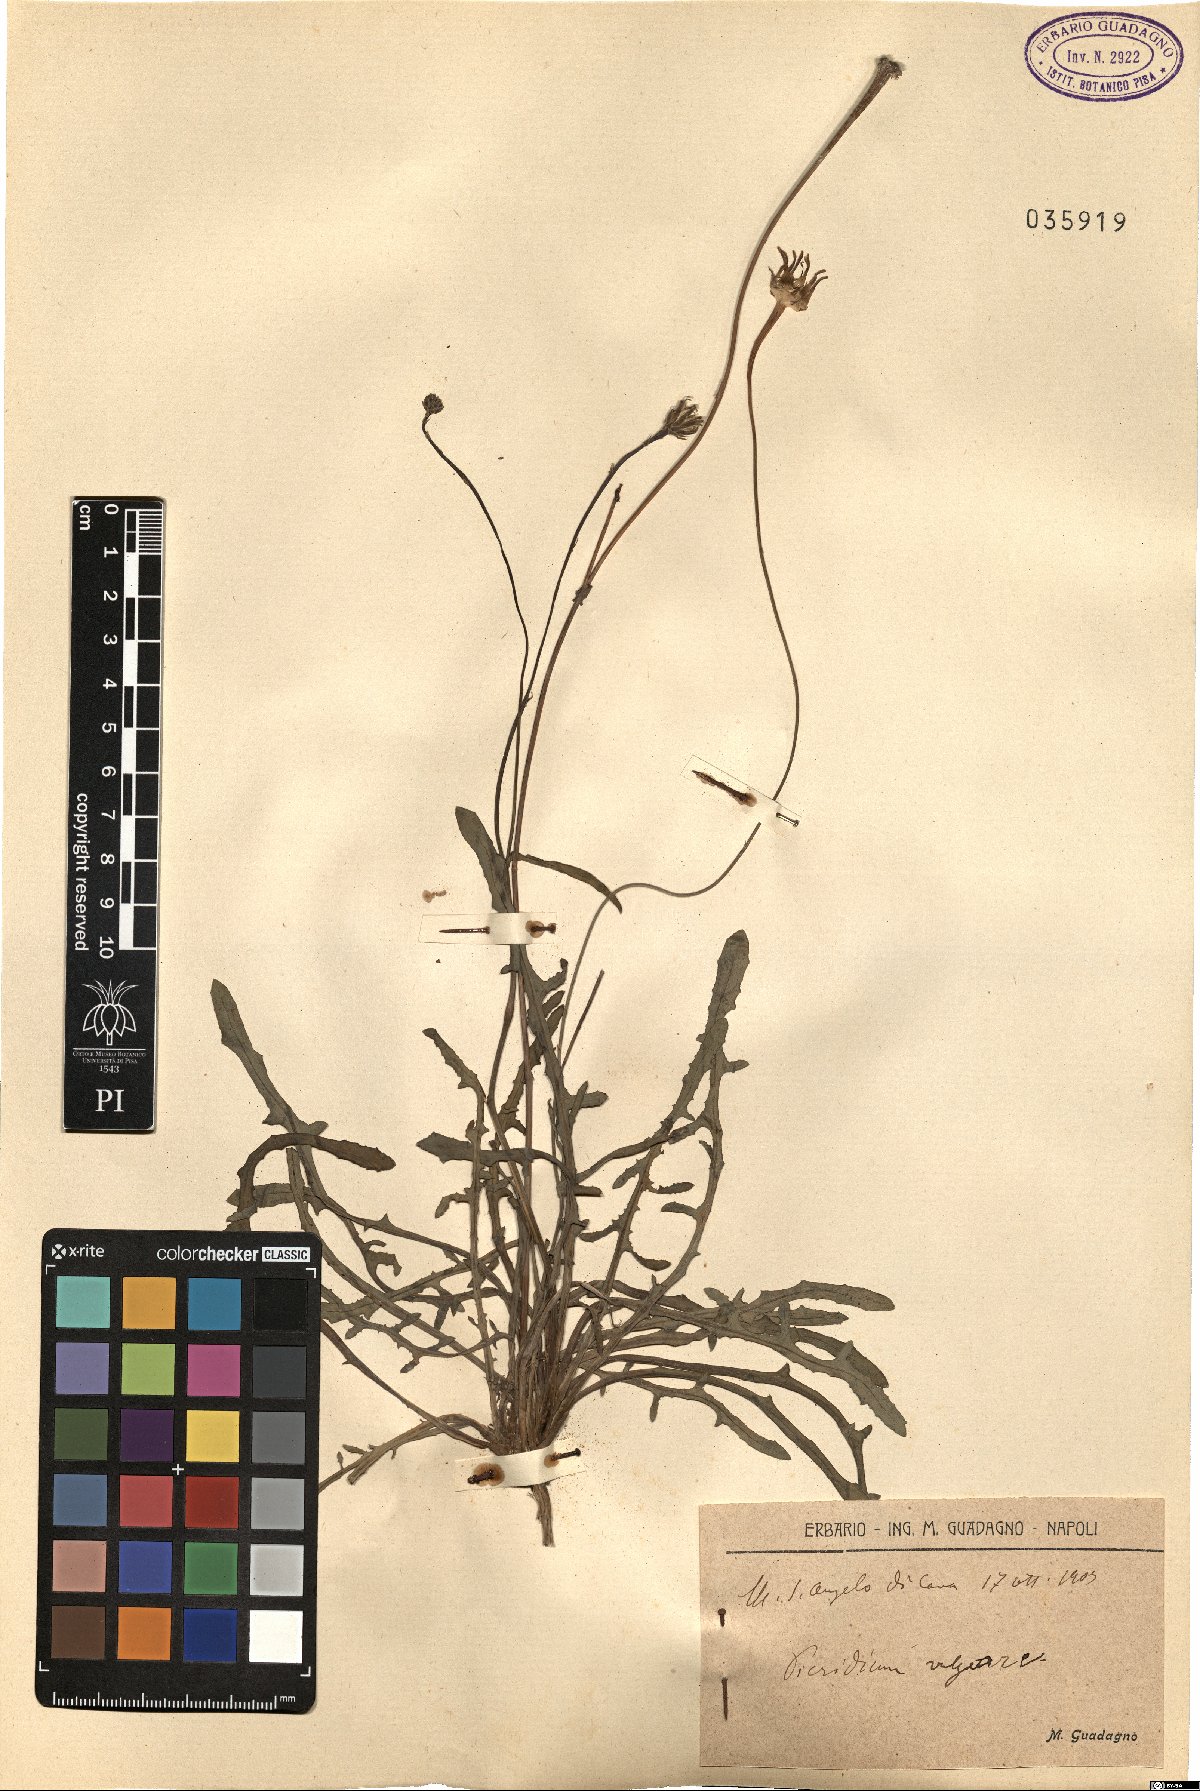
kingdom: Plantae
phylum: Tracheophyta
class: Magnoliopsida
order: Asterales
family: Asteraceae
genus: Reichardia
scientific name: Reichardia picroides
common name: Common brighteyes
